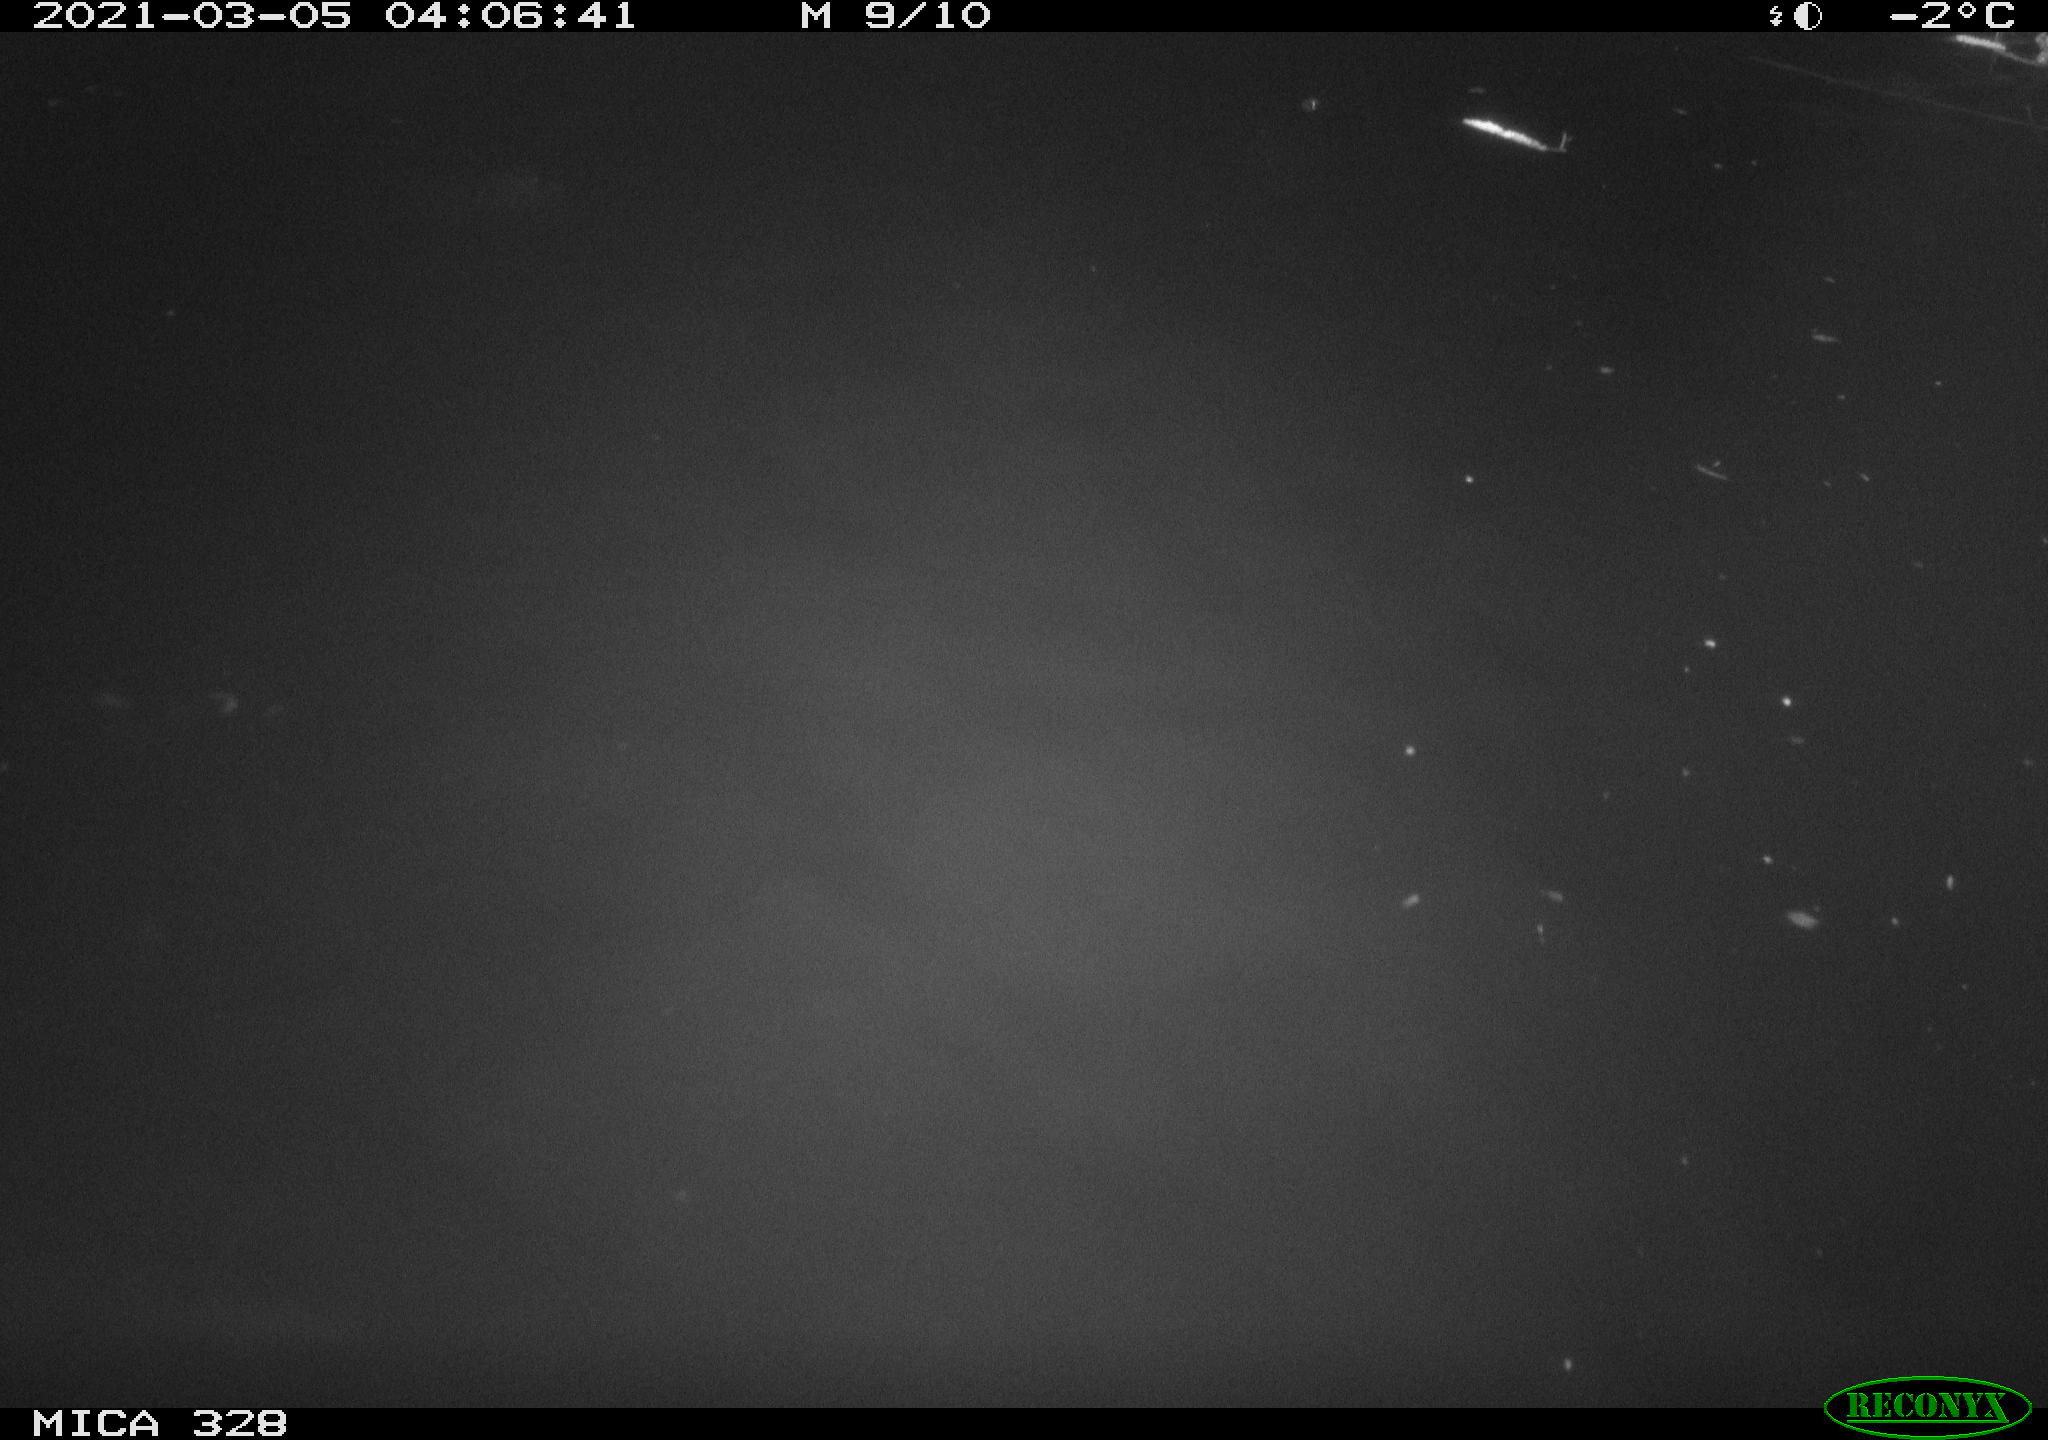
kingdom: Animalia
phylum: Chordata
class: Aves
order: Anseriformes
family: Anatidae
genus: Anas
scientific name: Anas
